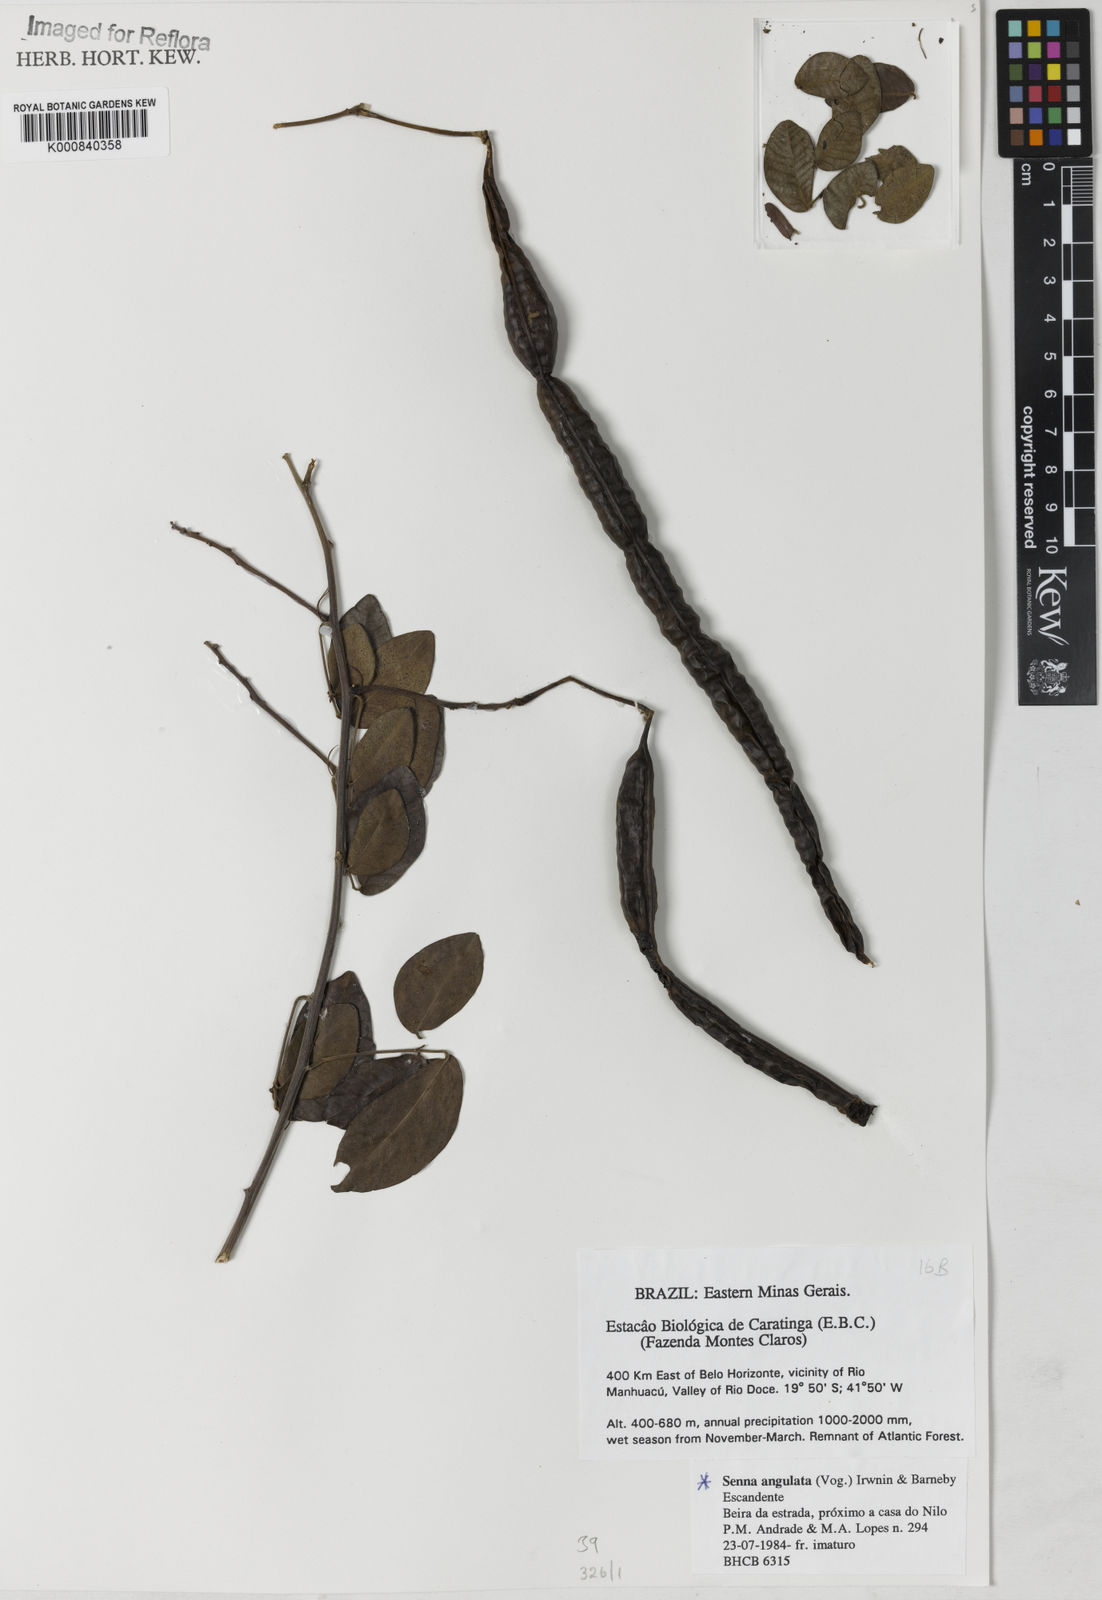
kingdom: Plantae
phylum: Tracheophyta
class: Magnoliopsida
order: Fabales
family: Fabaceae
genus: Senna
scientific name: Senna angulata
